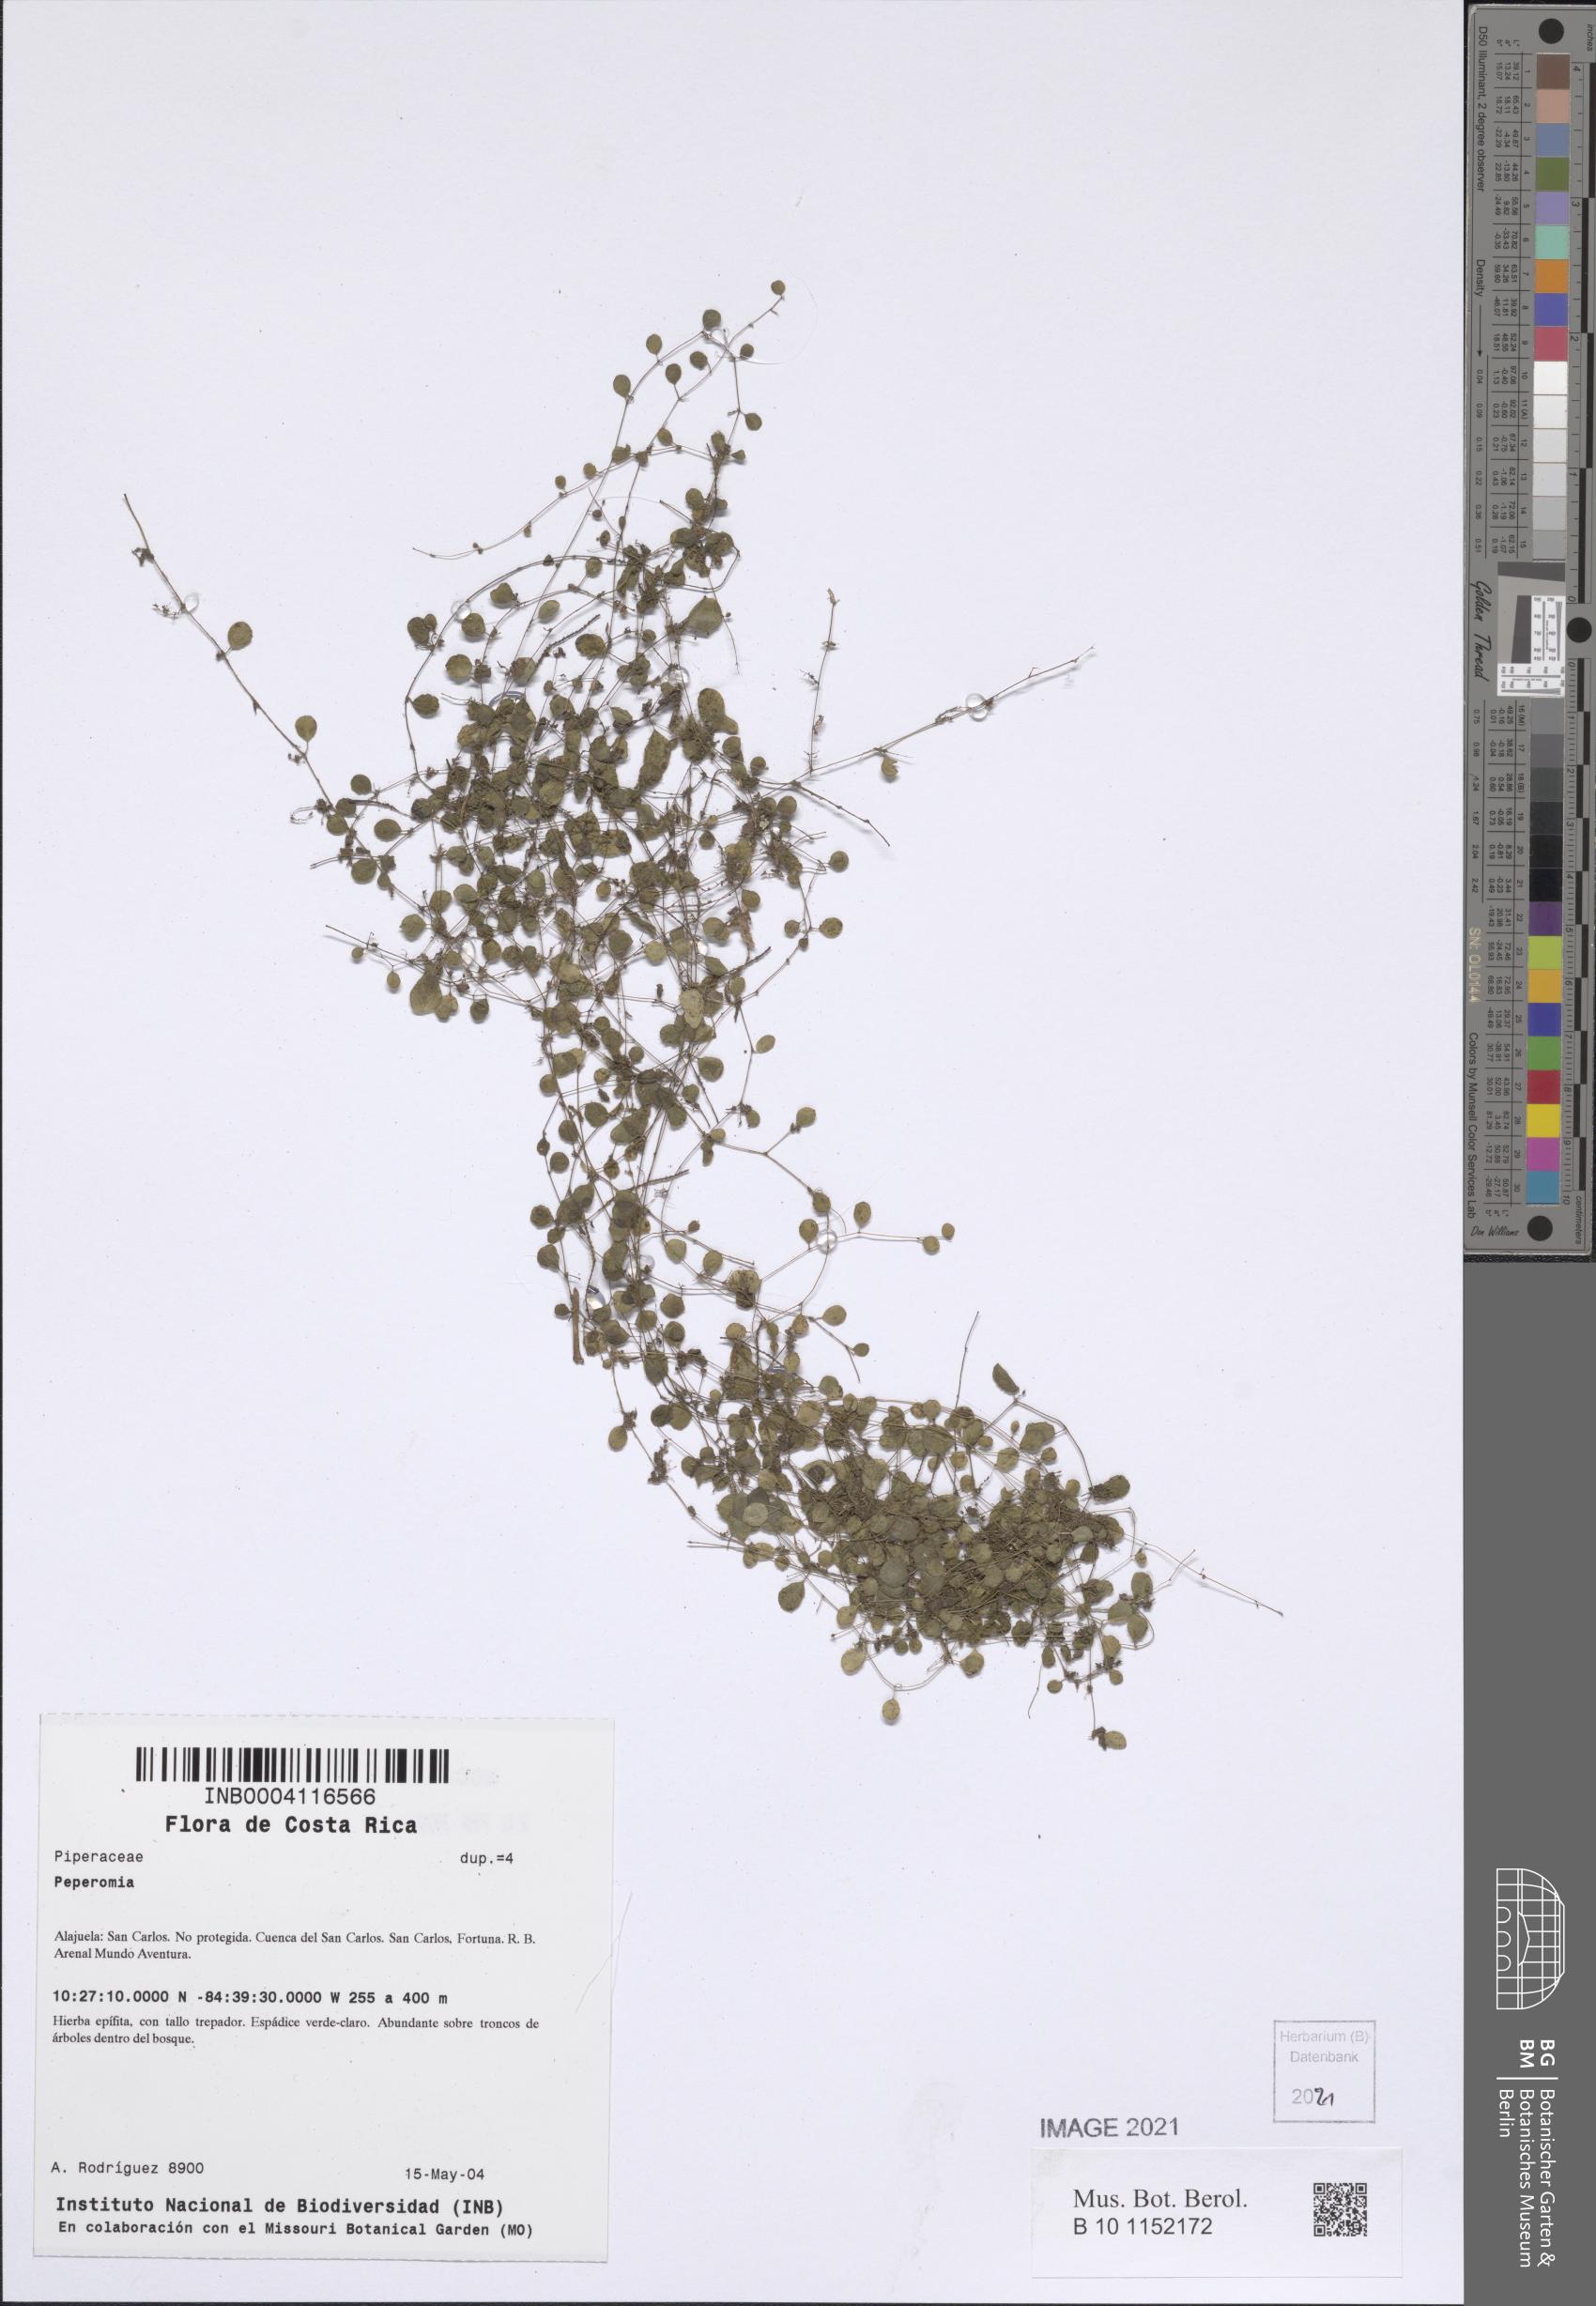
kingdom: Plantae
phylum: Tracheophyta
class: Magnoliopsida
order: Piperales
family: Piperaceae
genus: Peperomia
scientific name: Peperomia rotundifolia
